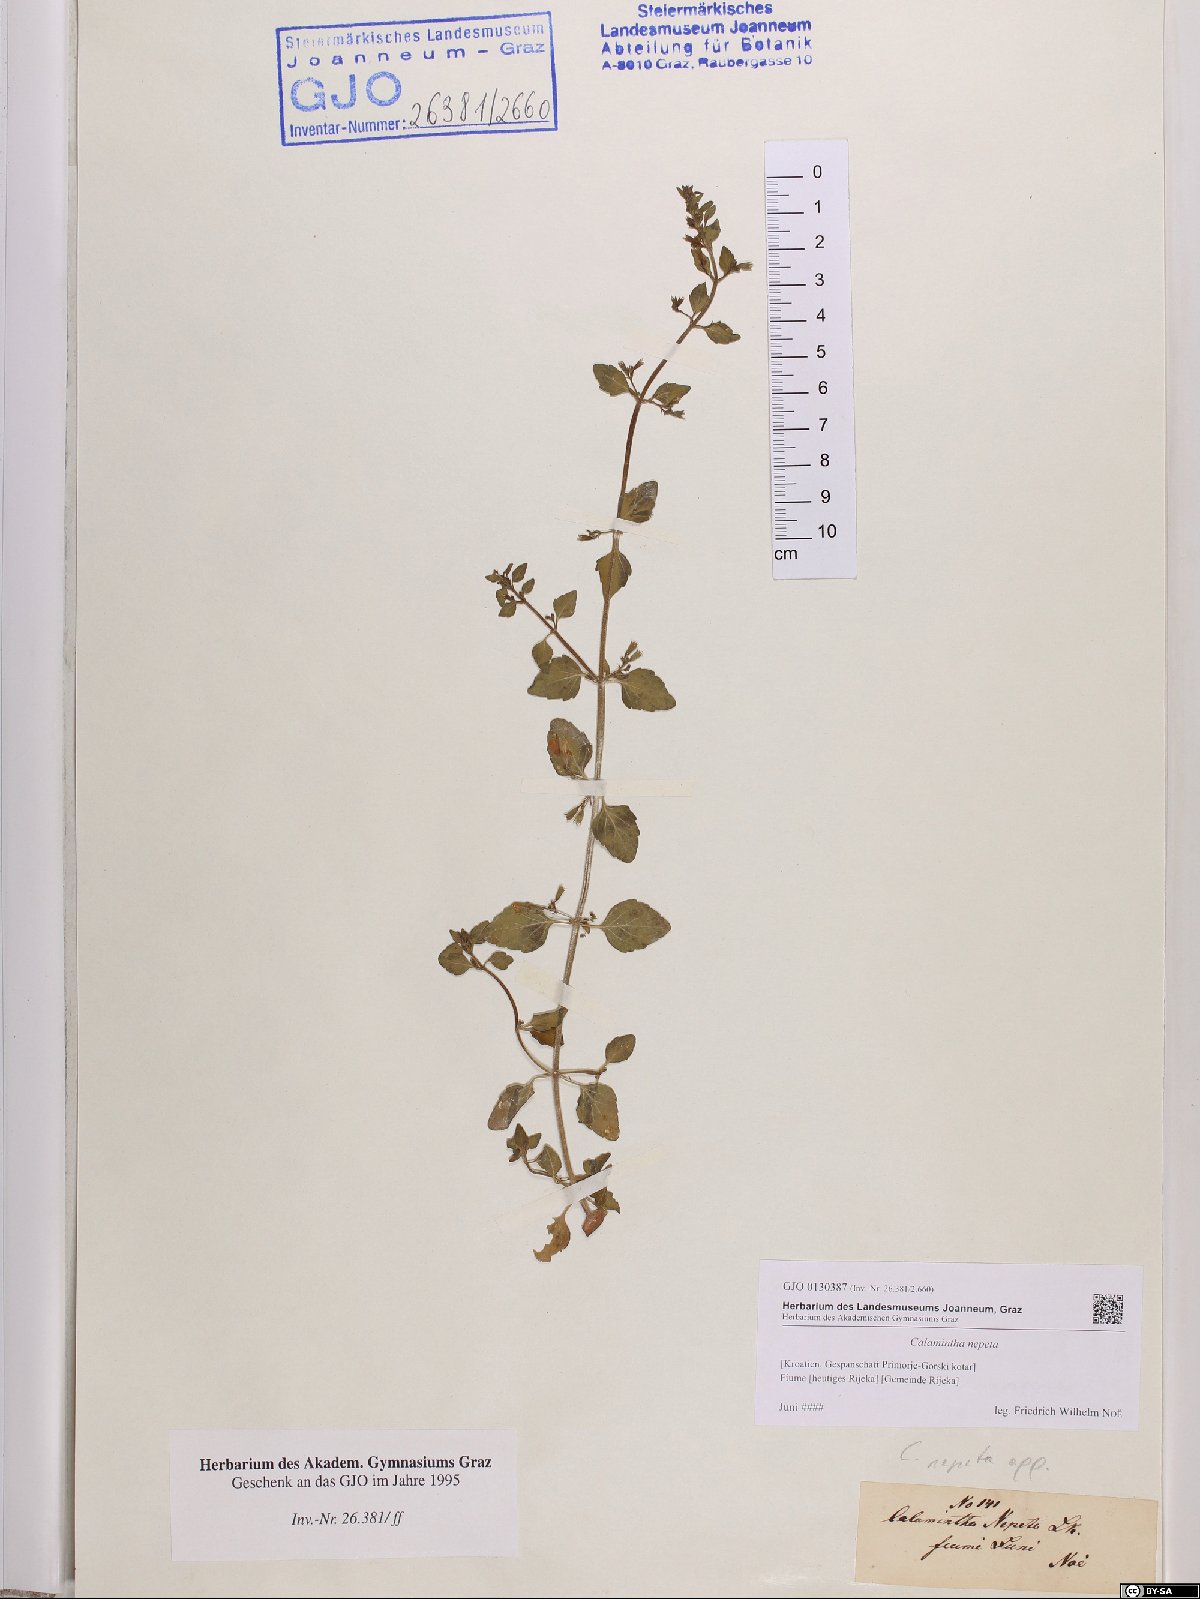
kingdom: Plantae
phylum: Tracheophyta
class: Magnoliopsida
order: Lamiales
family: Lamiaceae
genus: Clinopodium
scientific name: Clinopodium nepeta
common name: Lesser calamint
